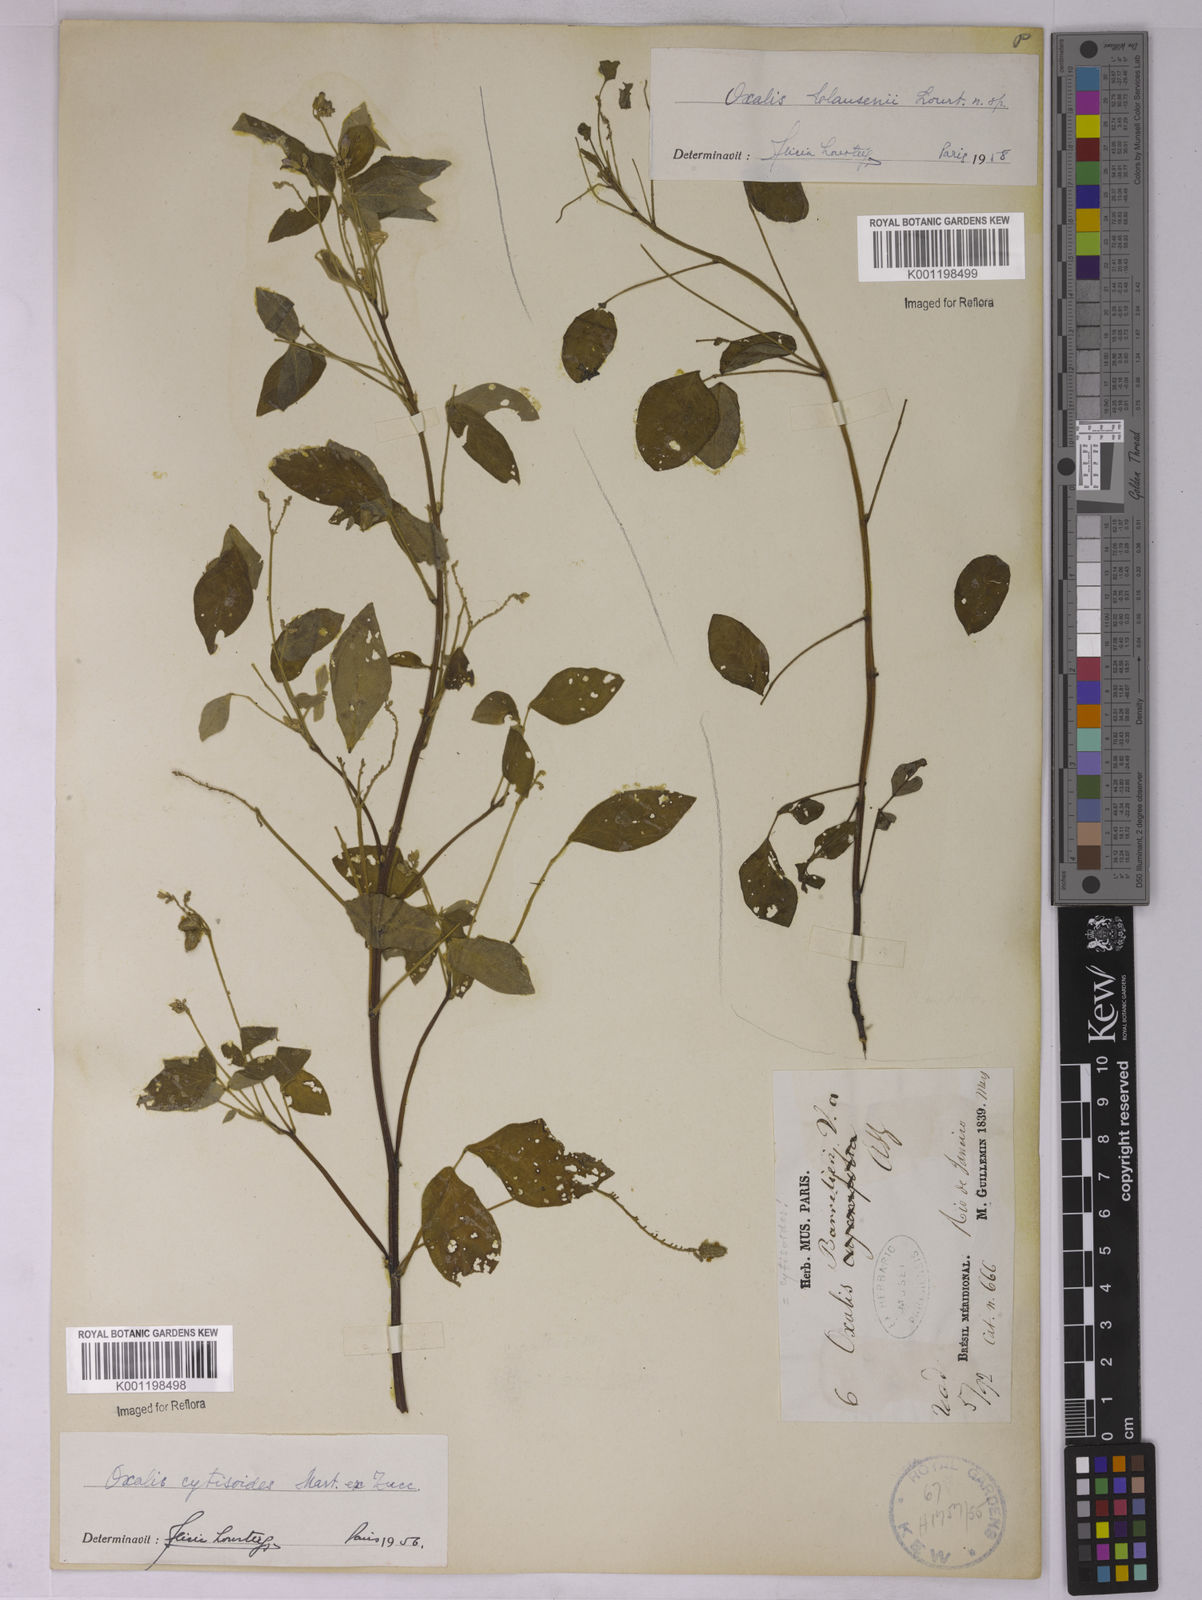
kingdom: Plantae
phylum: Tracheophyta
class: Magnoliopsida
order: Oxalidales
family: Oxalidaceae
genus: Oxalis
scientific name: Oxalis clausenii
